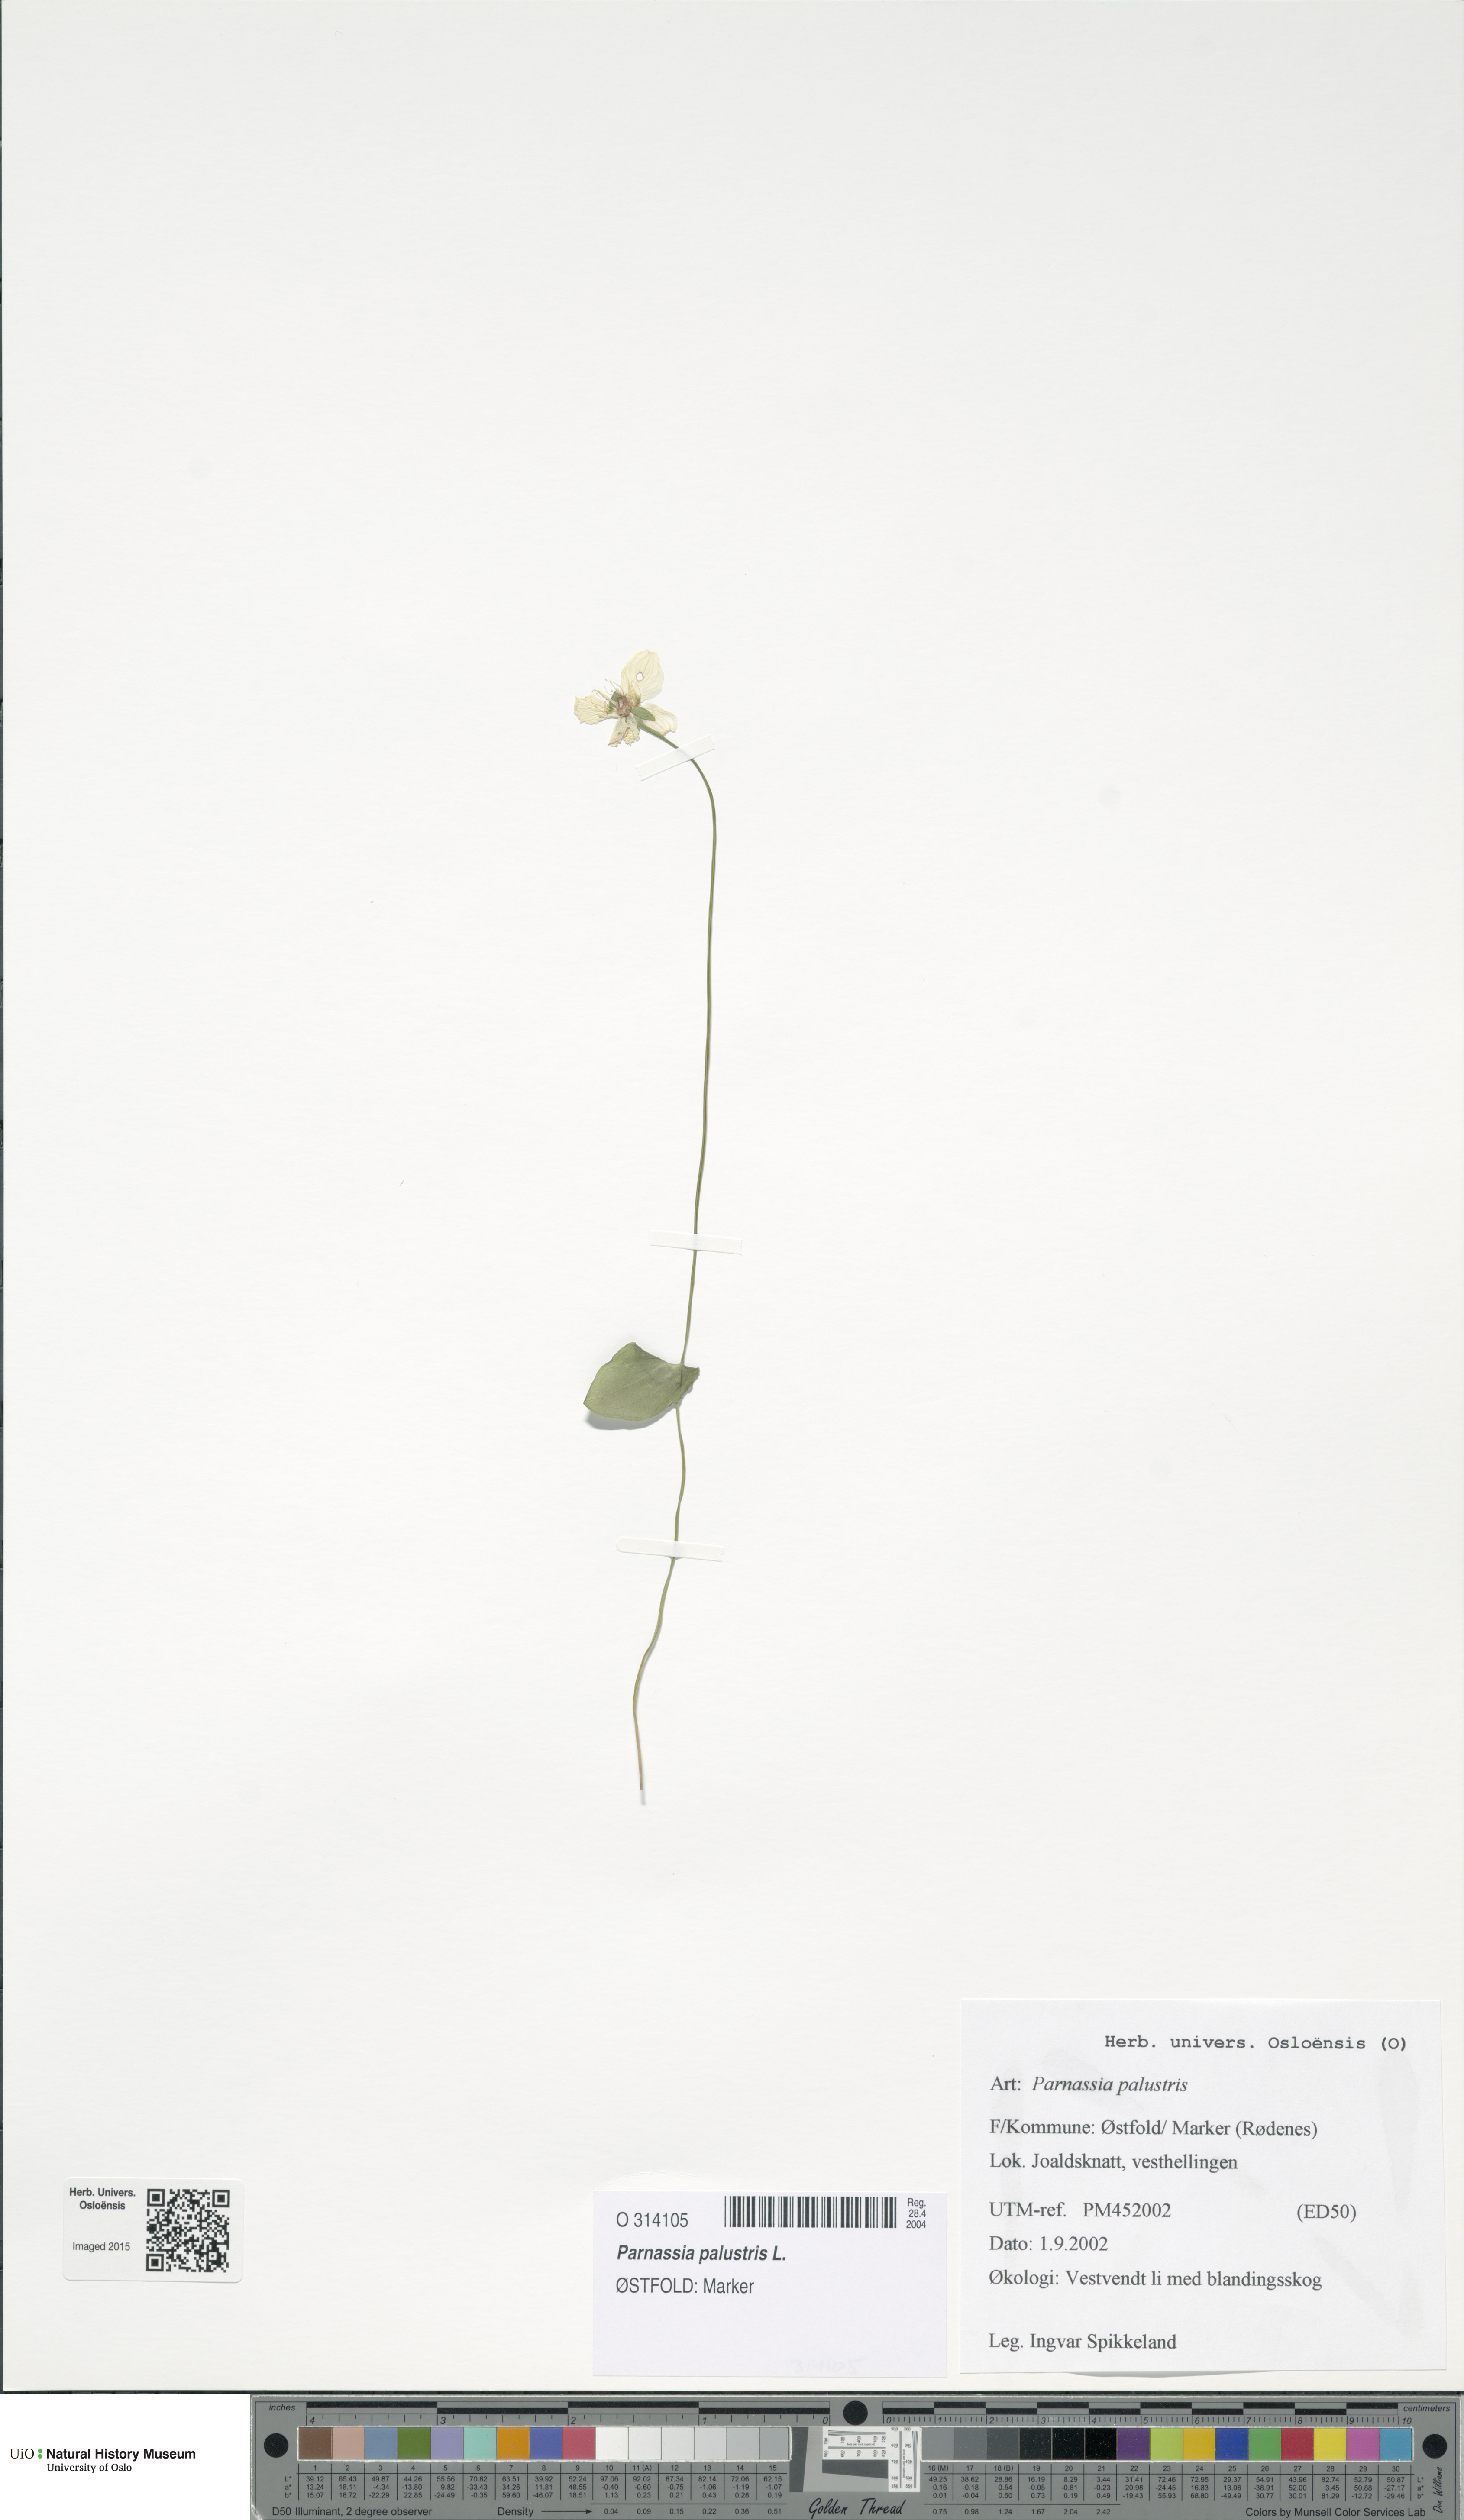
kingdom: Plantae
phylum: Tracheophyta
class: Magnoliopsida
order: Celastrales
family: Parnassiaceae
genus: Parnassia
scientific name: Parnassia palustris
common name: Grass-of-parnassus
